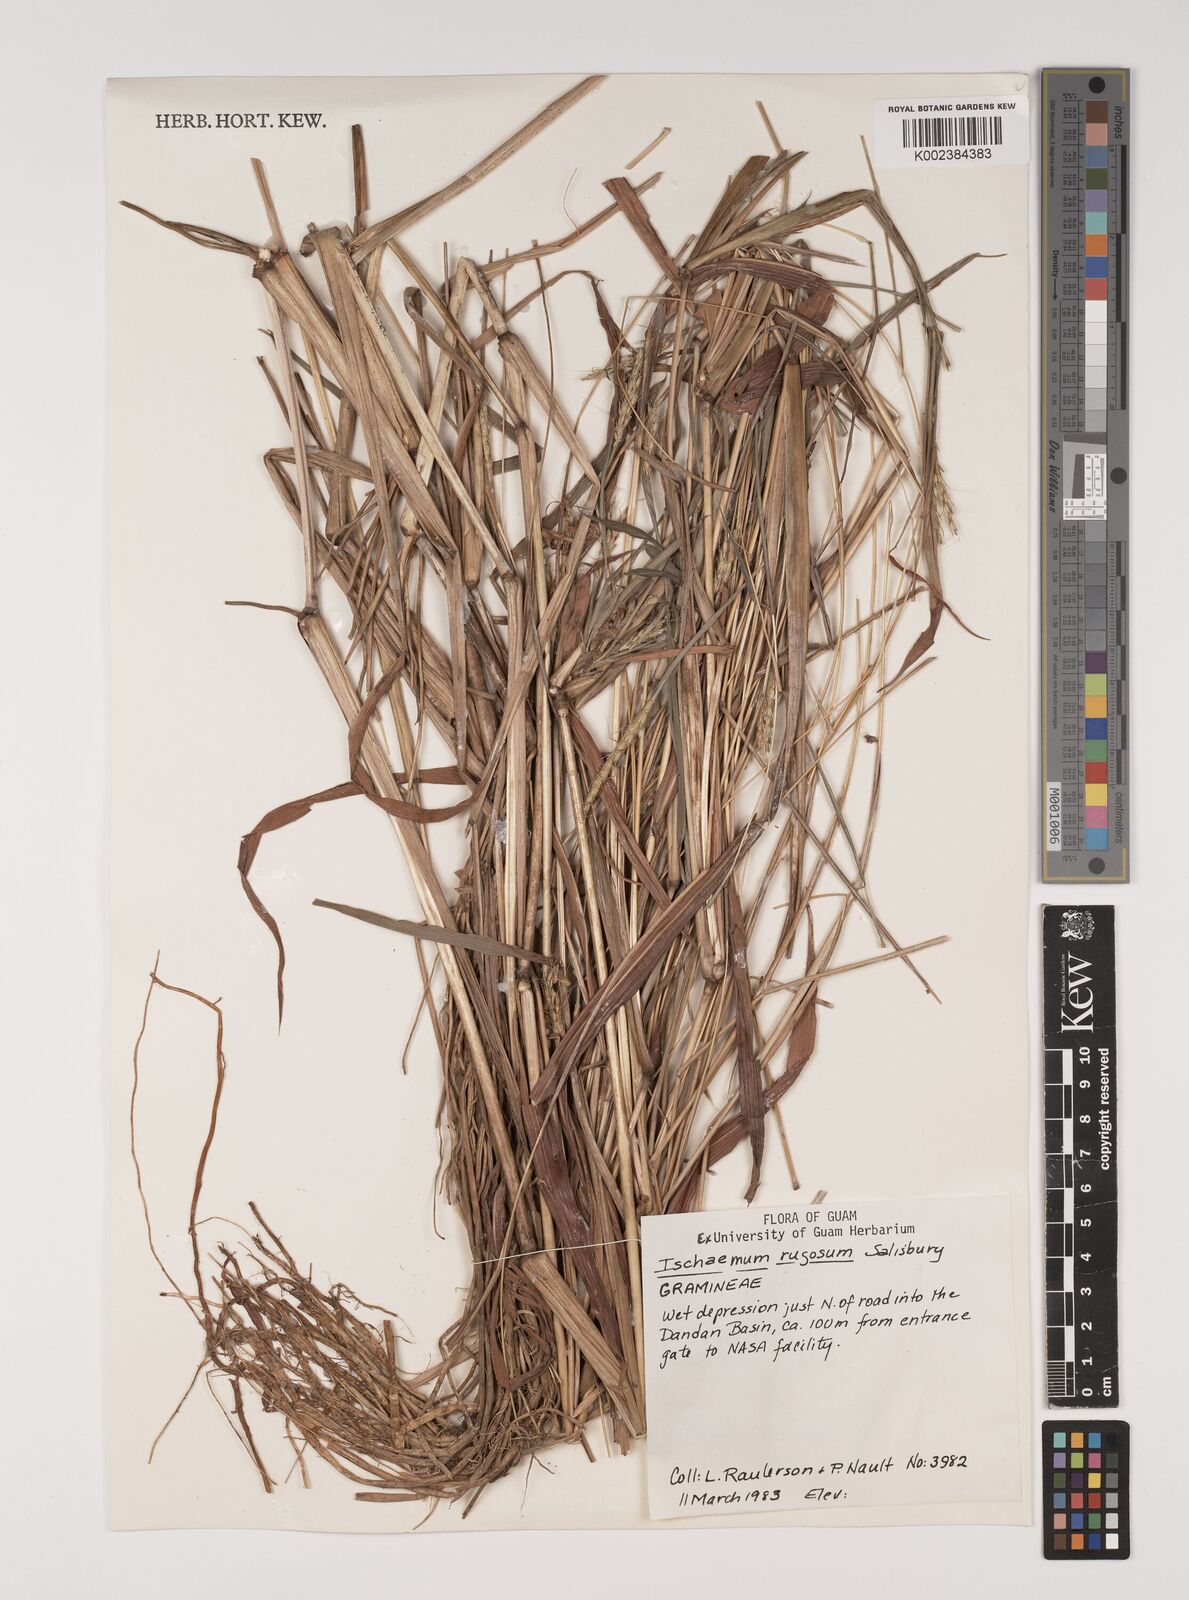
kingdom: Plantae
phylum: Tracheophyta
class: Liliopsida
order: Poales
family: Poaceae
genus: Ischaemum
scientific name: Ischaemum rugosum
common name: Saramatta grass
